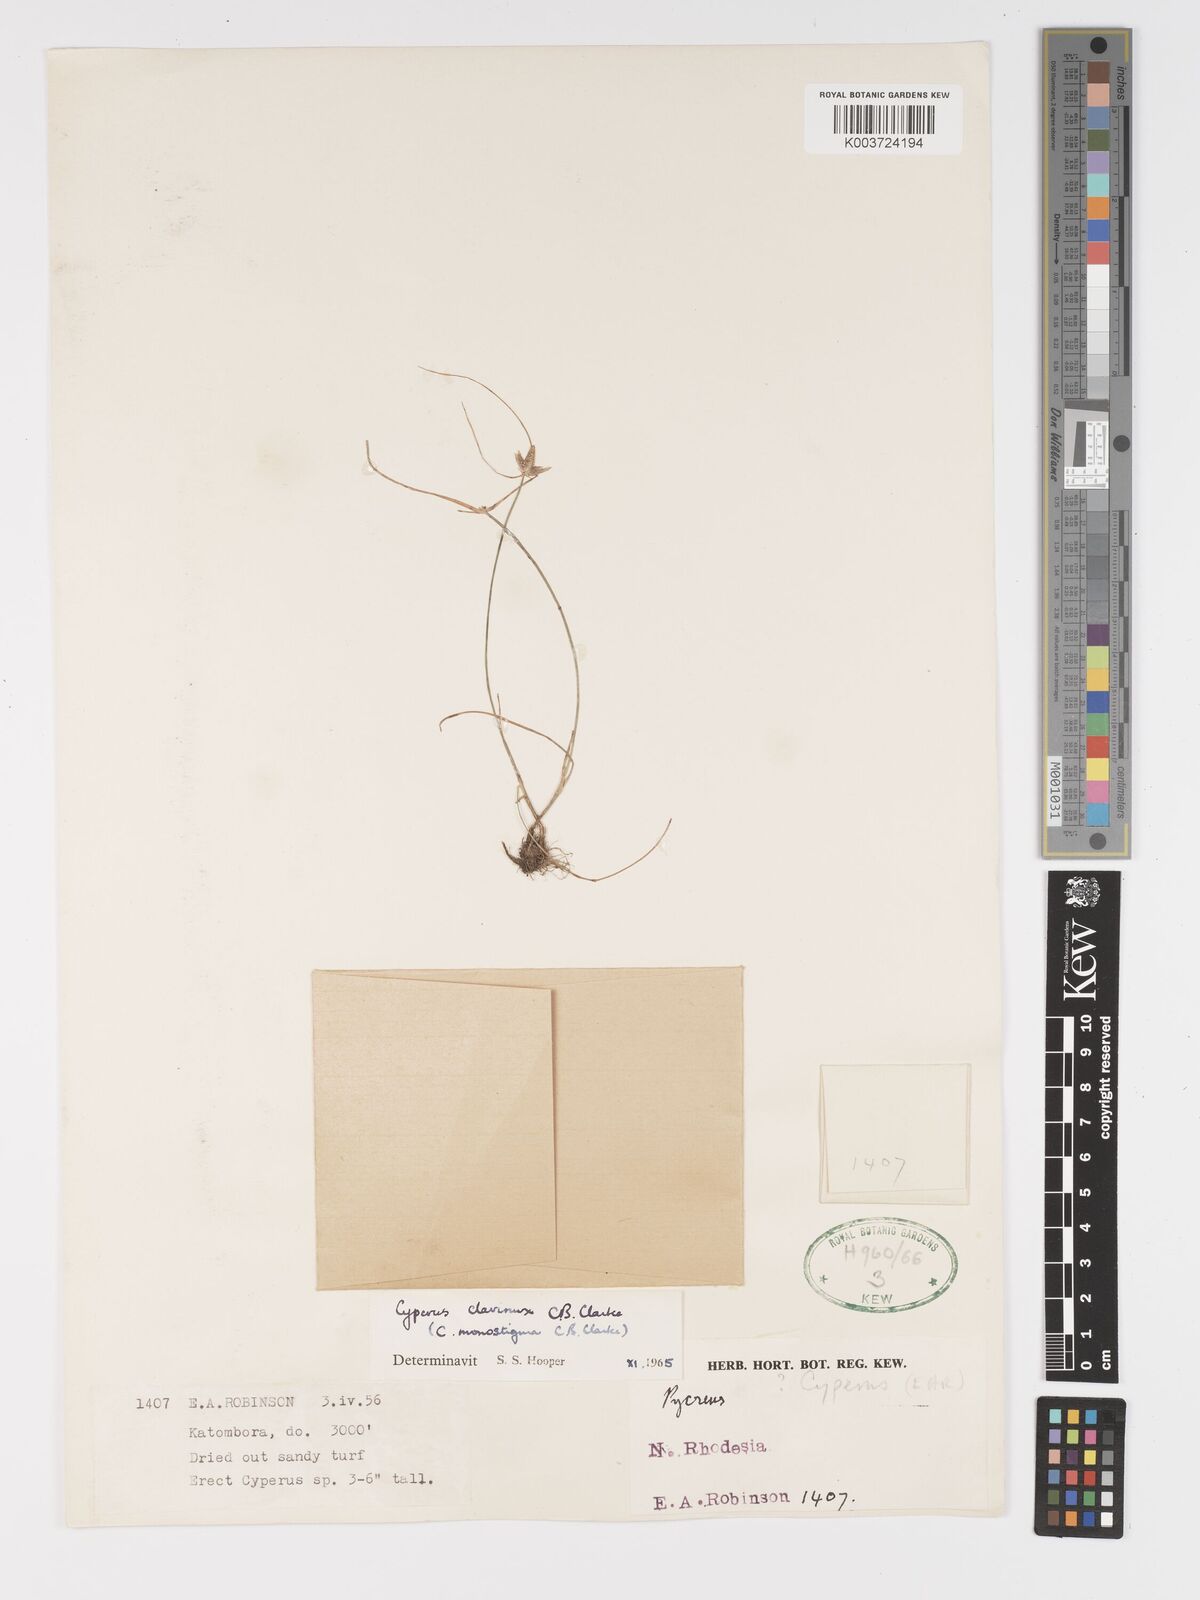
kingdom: Plantae
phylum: Tracheophyta
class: Liliopsida
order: Poales
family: Cyperaceae
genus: Cyperus
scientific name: Cyperus clavinux
